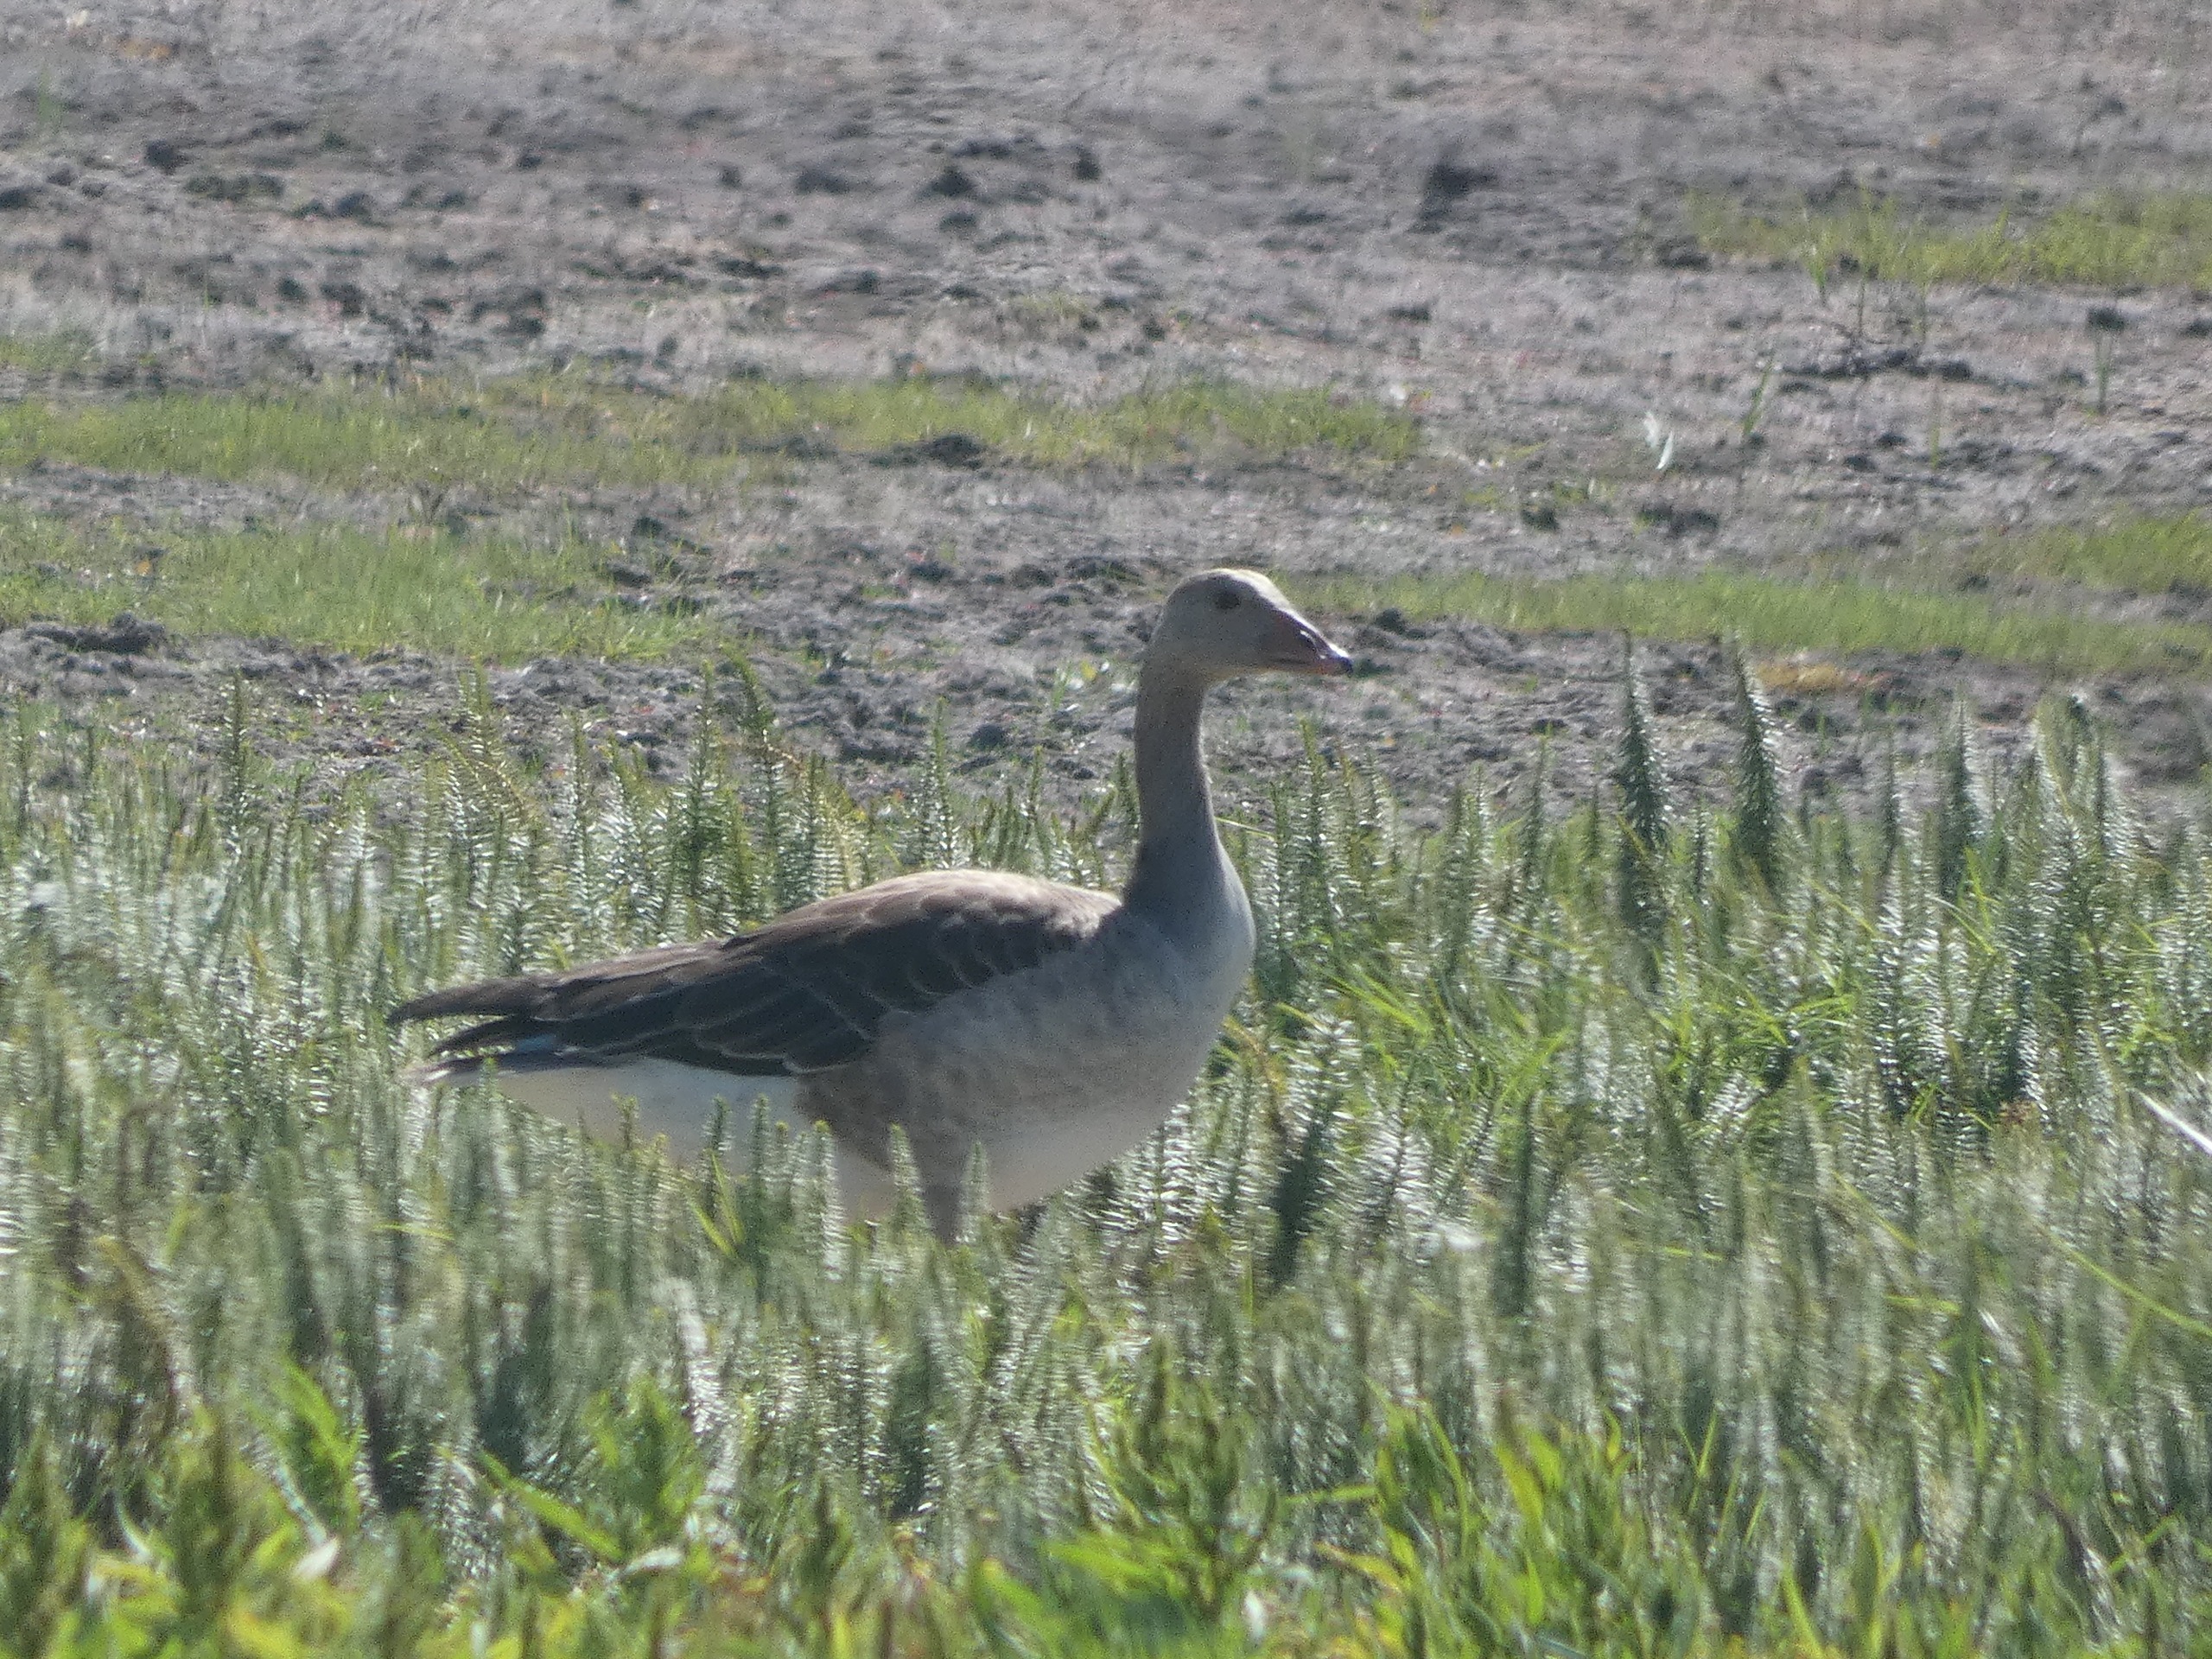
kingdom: Animalia
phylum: Chordata
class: Aves
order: Anseriformes
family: Anatidae
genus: Anser
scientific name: Anser anser
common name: Grågås
